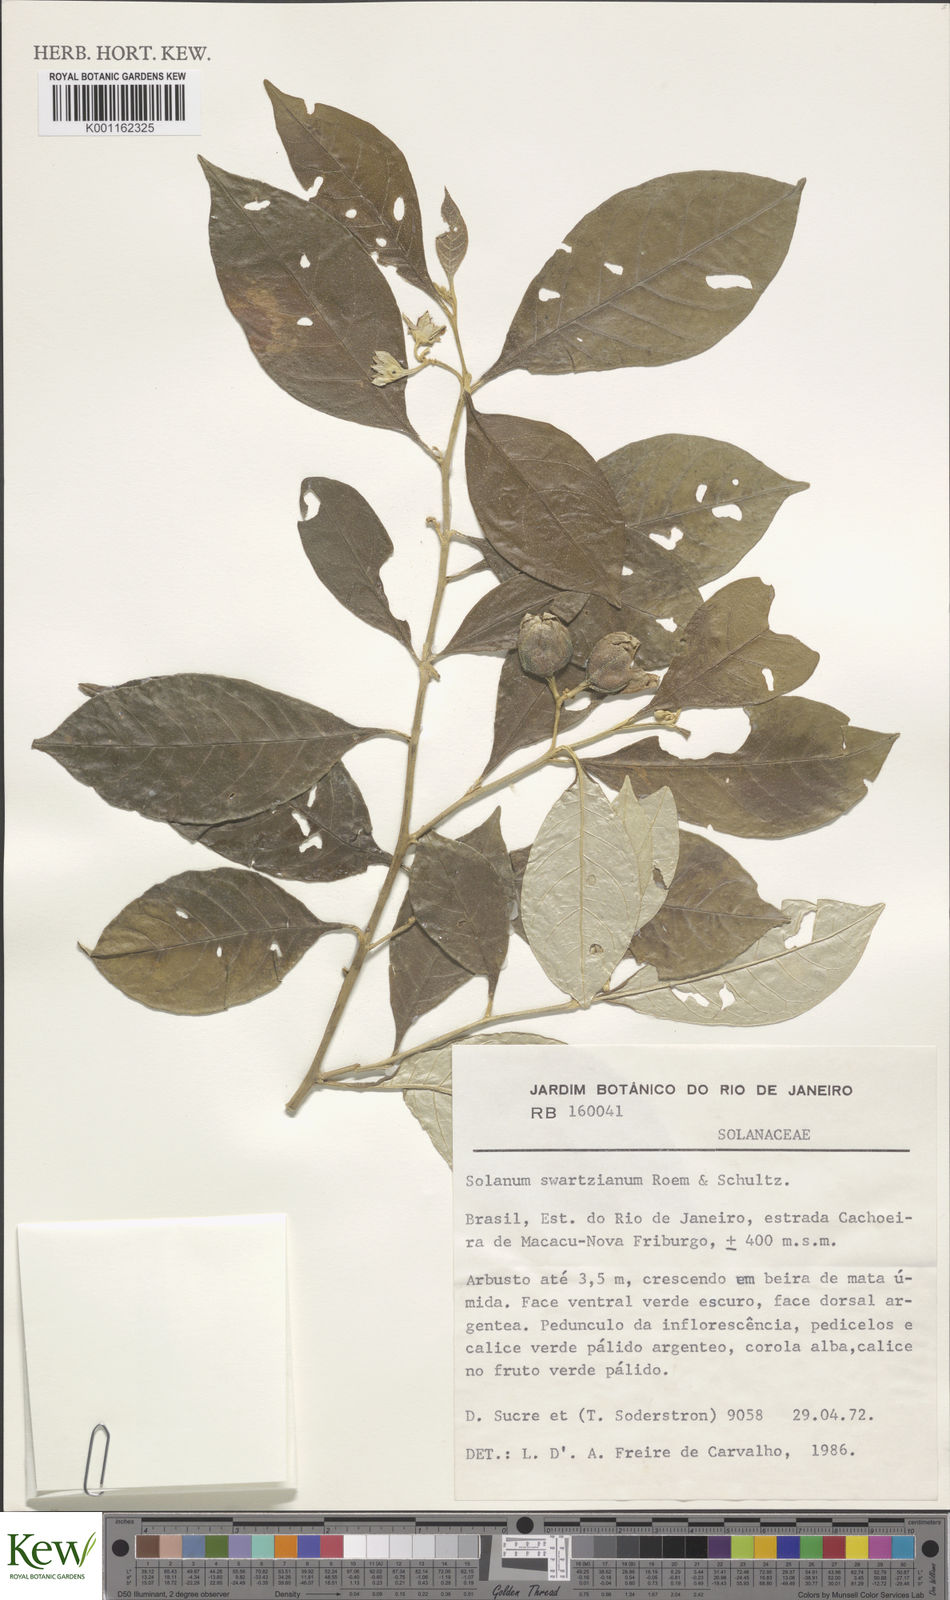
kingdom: Plantae
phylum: Tracheophyta
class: Magnoliopsida
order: Solanales
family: Solanaceae
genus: Solanum
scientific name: Solanum swartzianum
